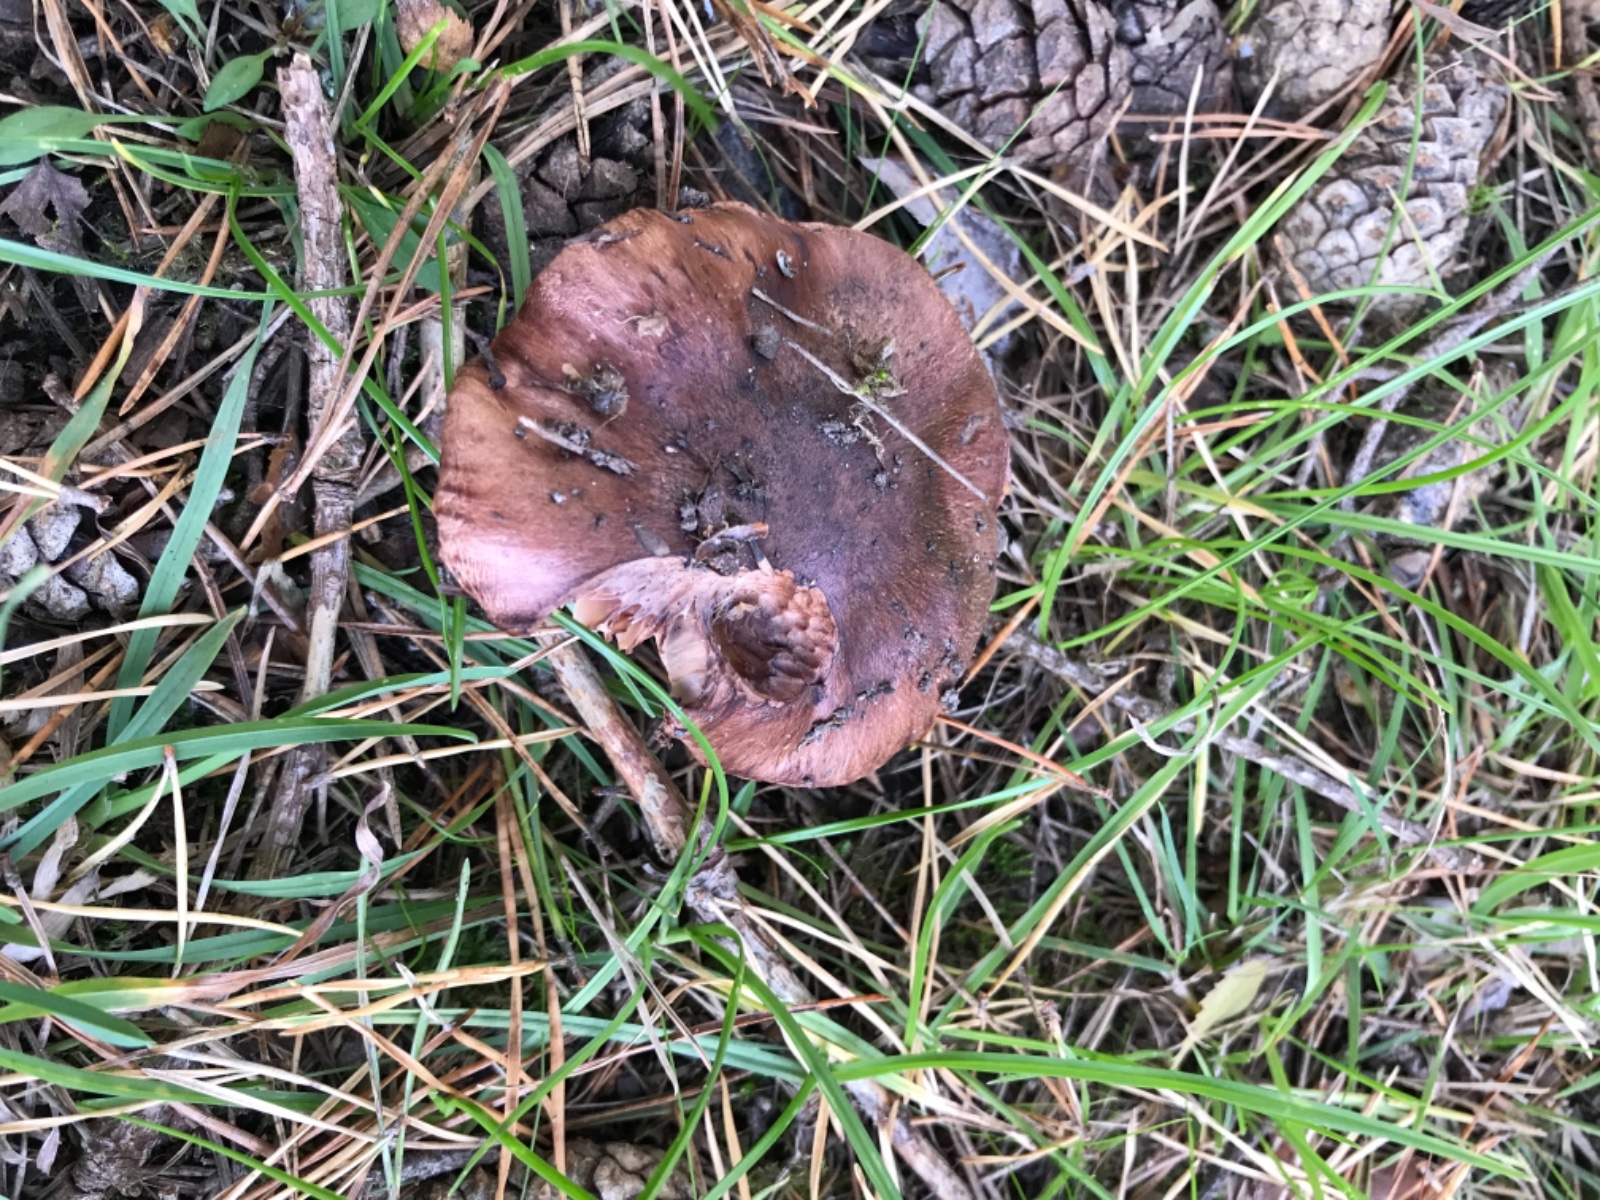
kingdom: Fungi
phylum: Basidiomycota
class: Agaricomycetes
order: Agaricales
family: Tricholomataceae
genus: Tricholoma
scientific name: Tricholoma albobrunneum
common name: kastanie-ridderhat
